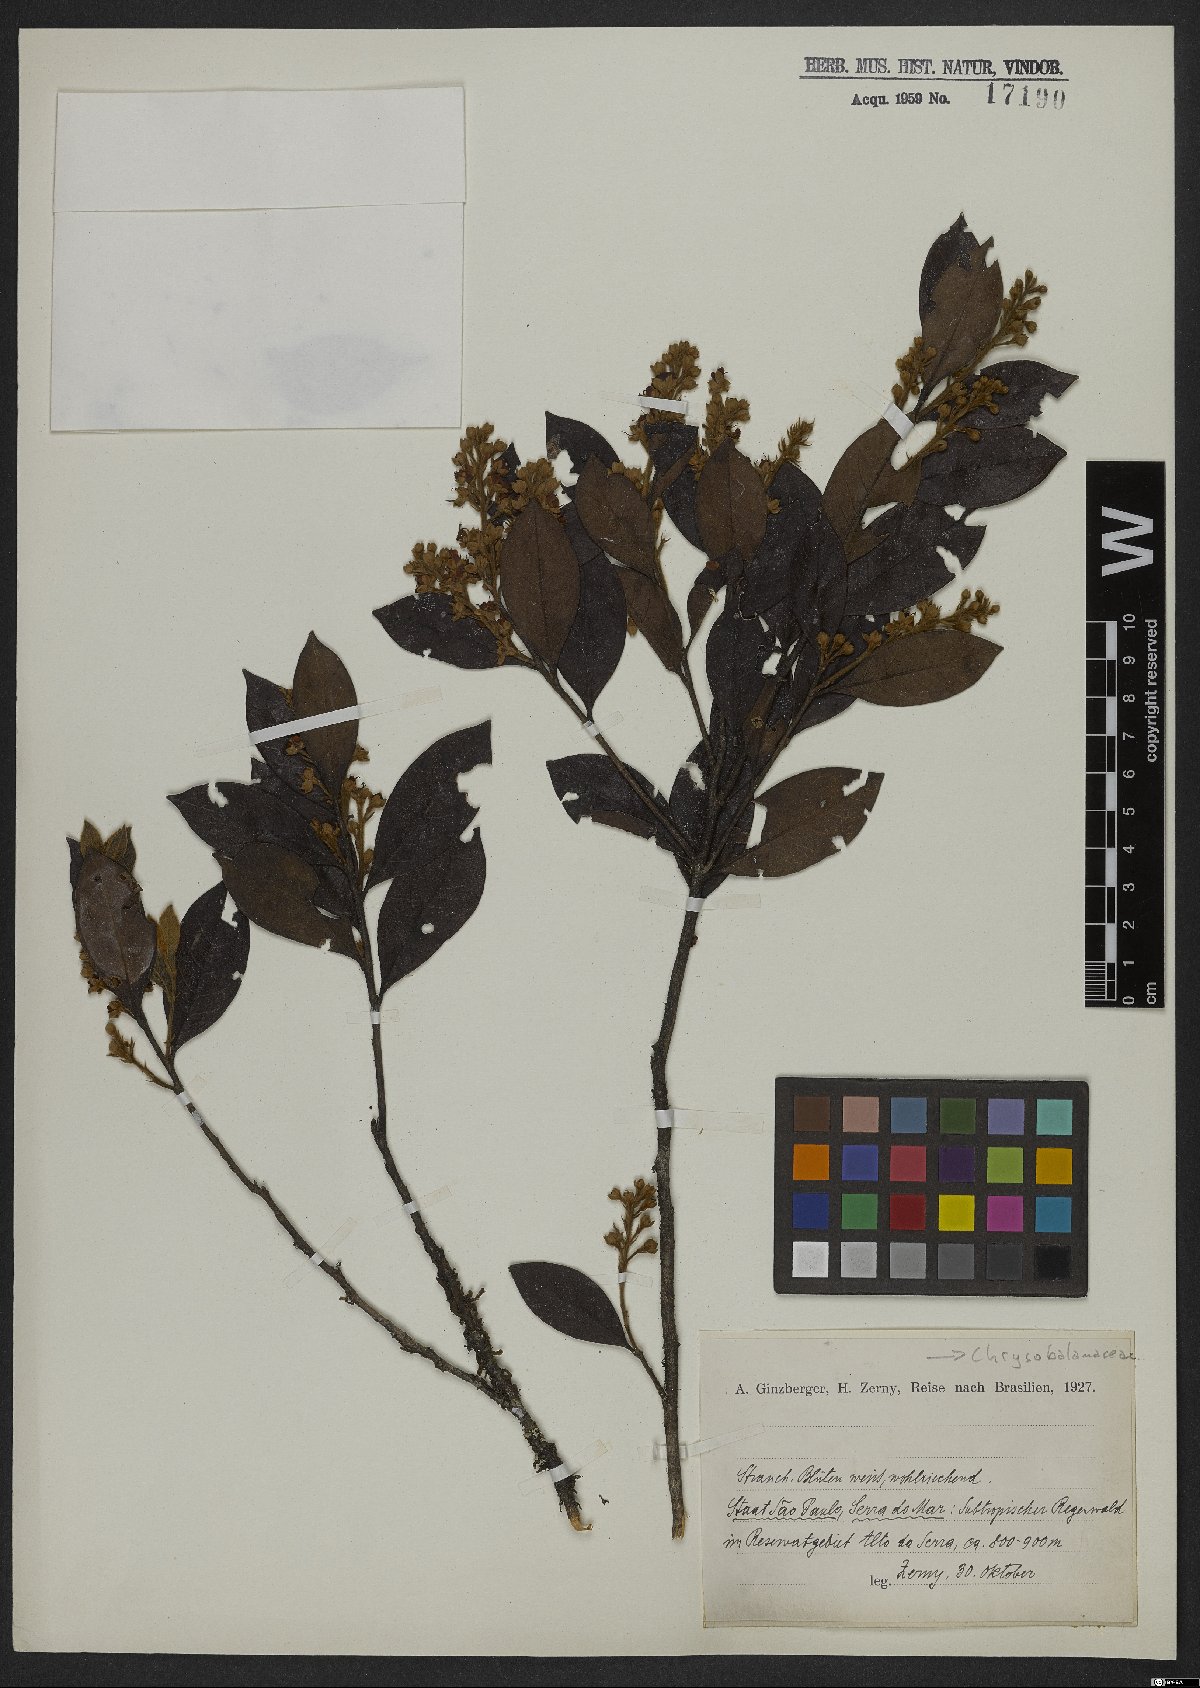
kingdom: Plantae
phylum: Tracheophyta
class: Magnoliopsida
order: Malpighiales
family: Chrysobalanaceae
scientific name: Chrysobalanaceae
